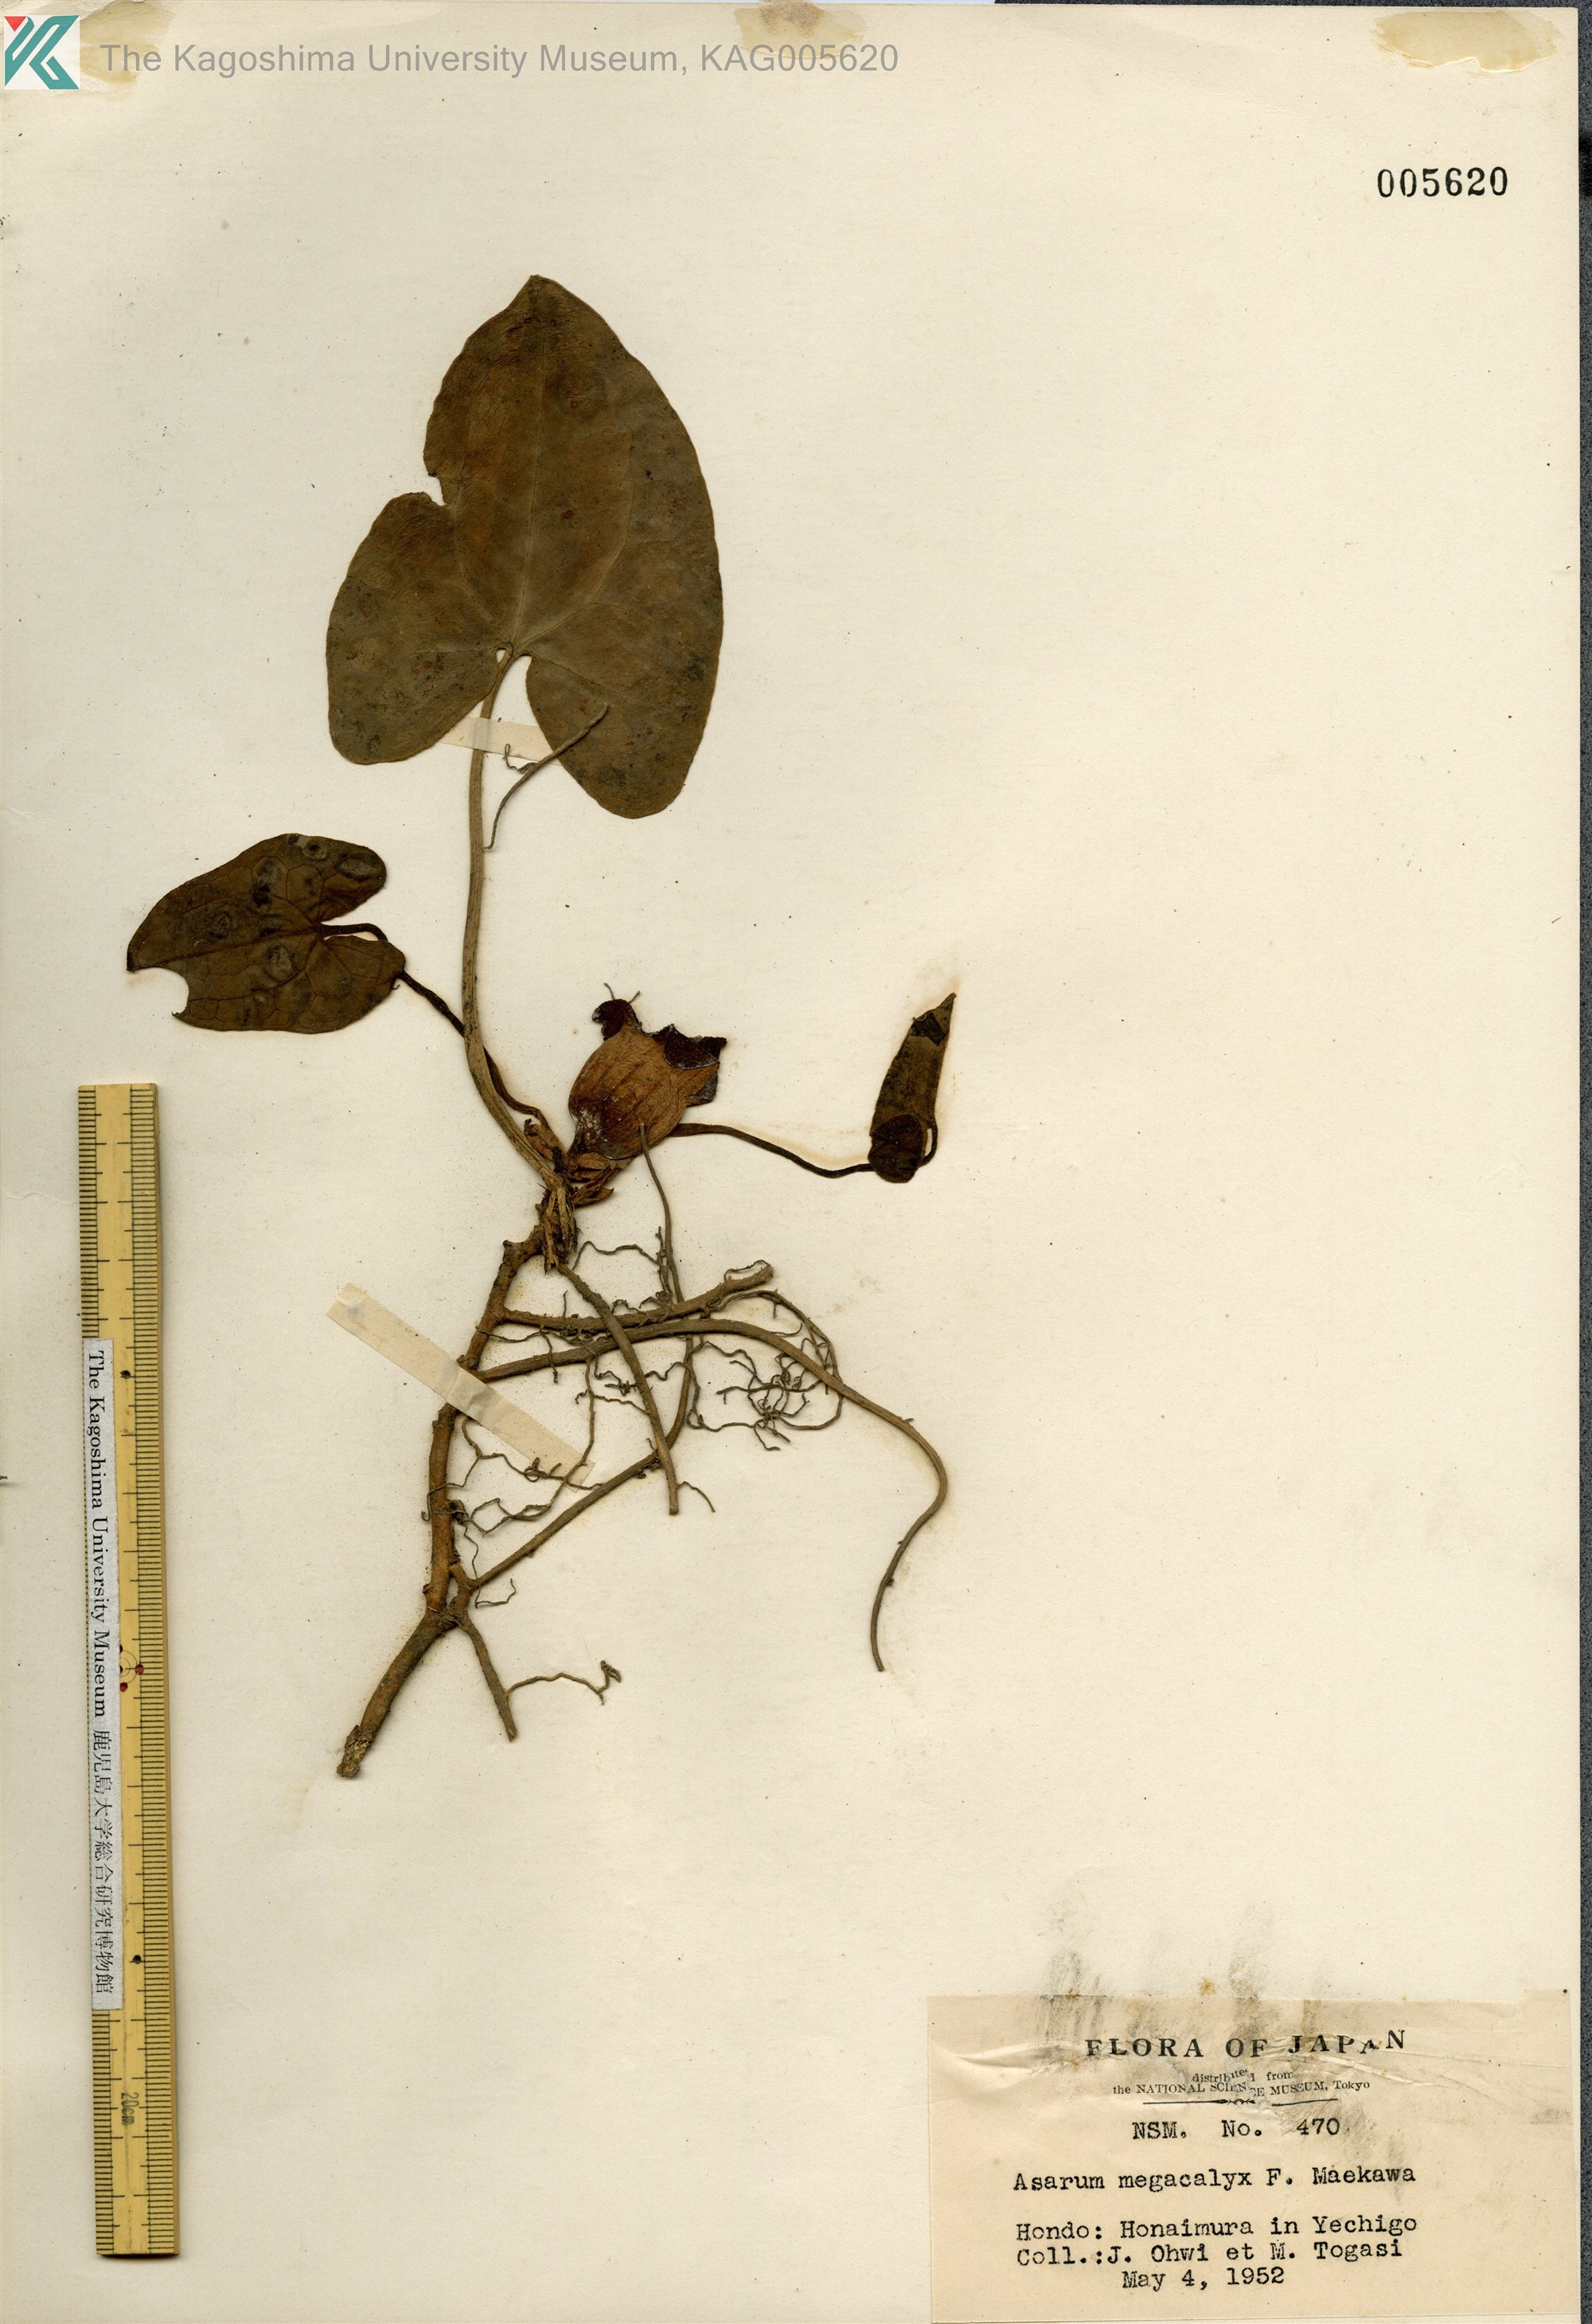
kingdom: Plantae
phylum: Tracheophyta
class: Magnoliopsida
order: Piperales
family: Aristolochiaceae
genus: Asarum
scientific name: Asarum megacalyx
